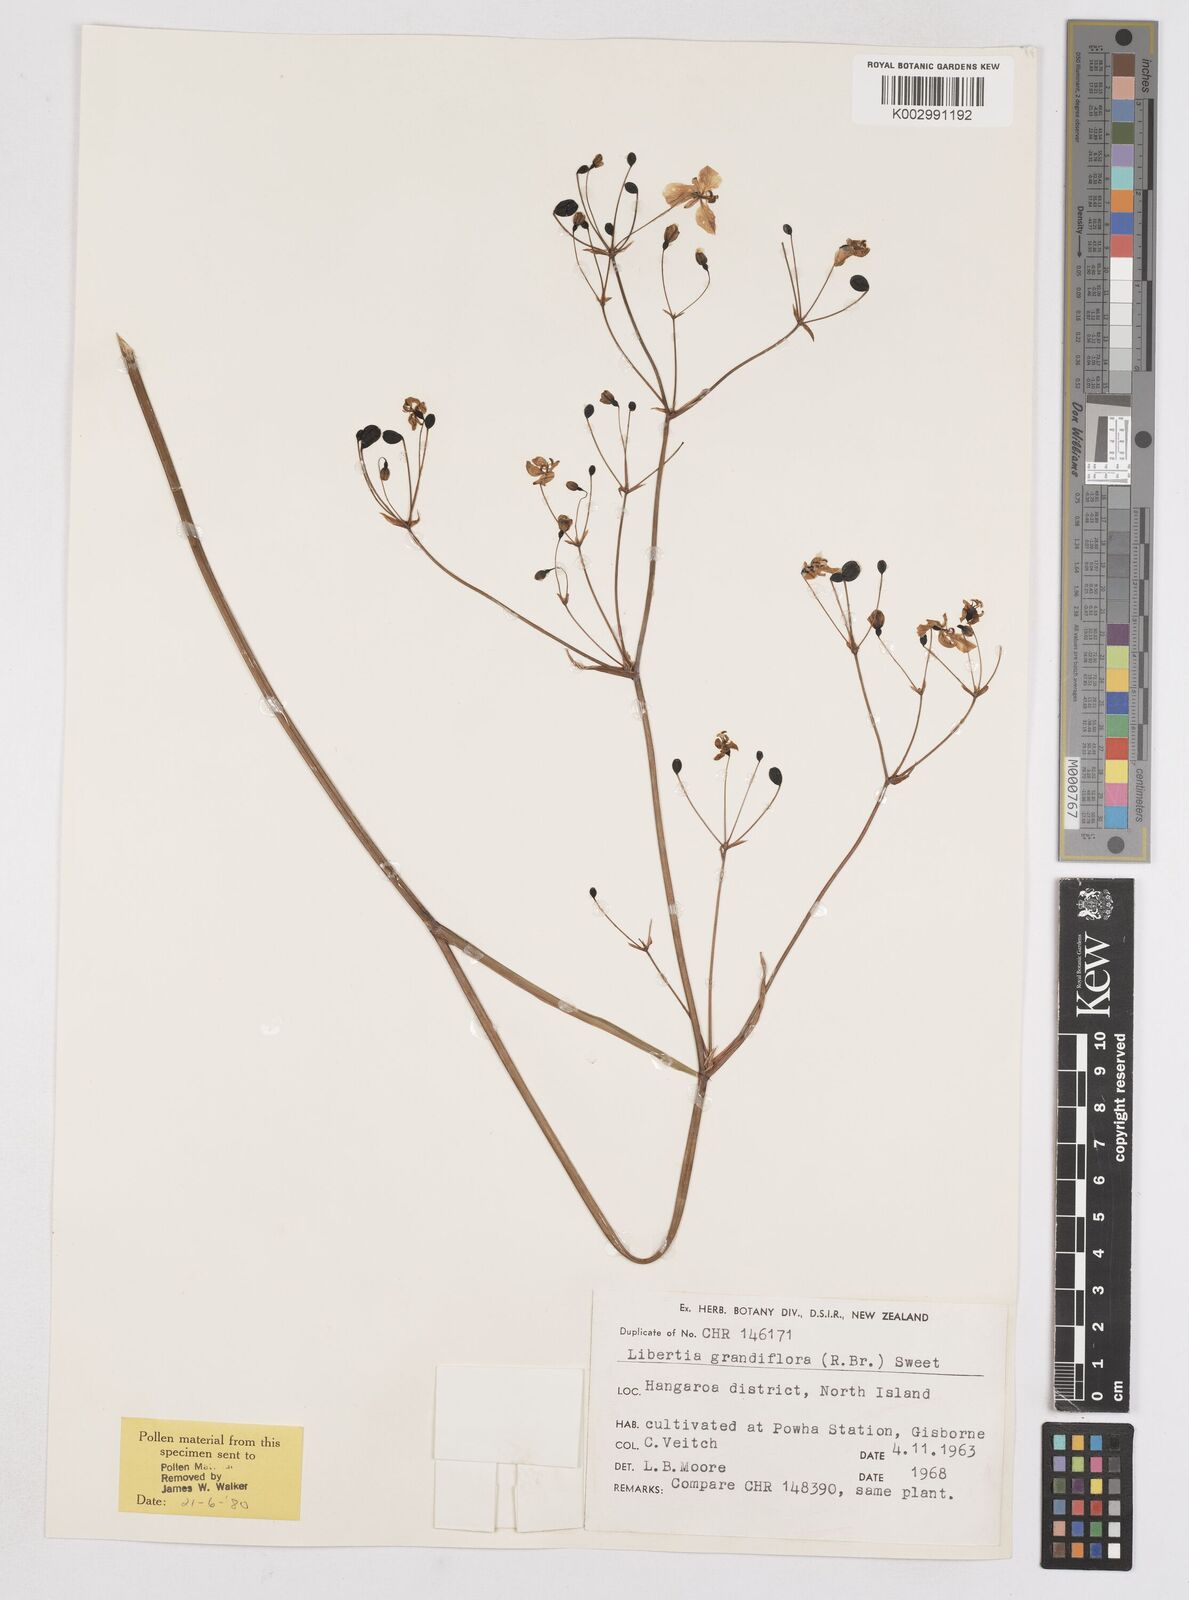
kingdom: Plantae
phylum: Tracheophyta
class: Liliopsida
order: Asparagales
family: Iridaceae
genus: Libertia
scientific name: Libertia grandiflora
